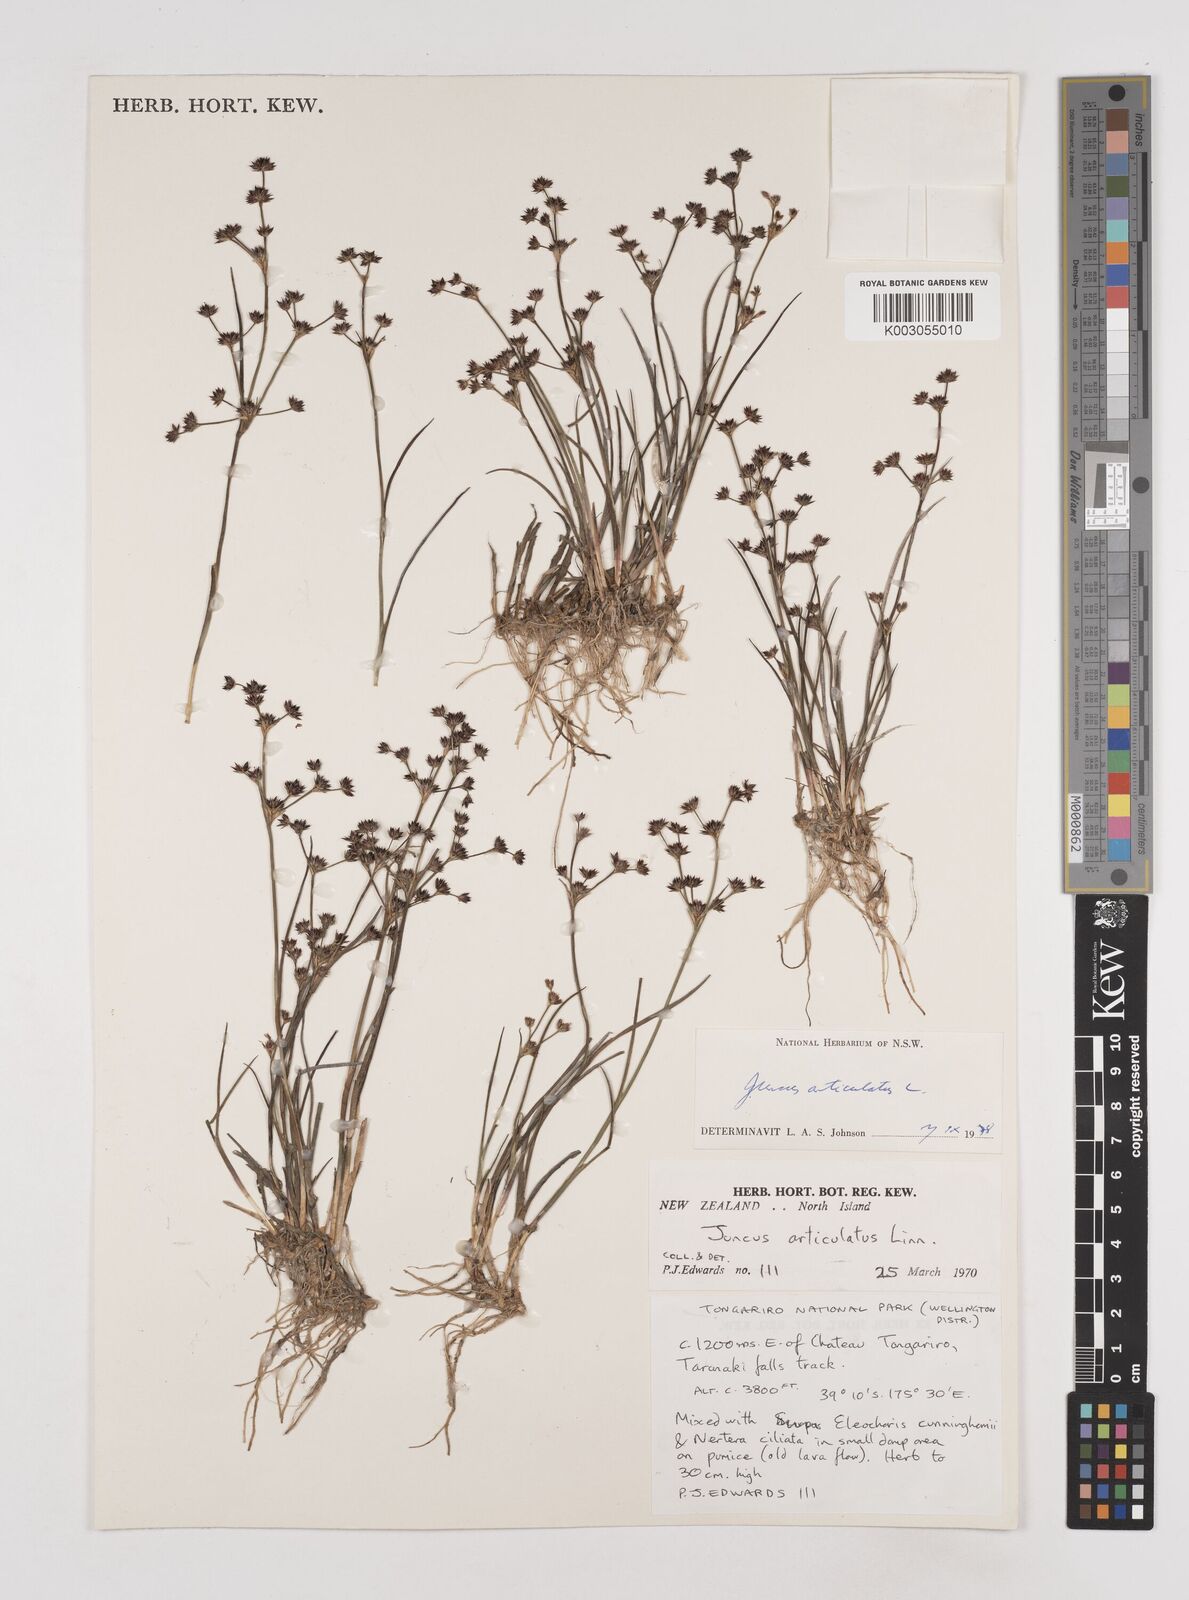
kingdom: Plantae
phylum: Tracheophyta
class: Liliopsida
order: Poales
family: Juncaceae
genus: Juncus
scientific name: Juncus articulatus
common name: Jointed rush
